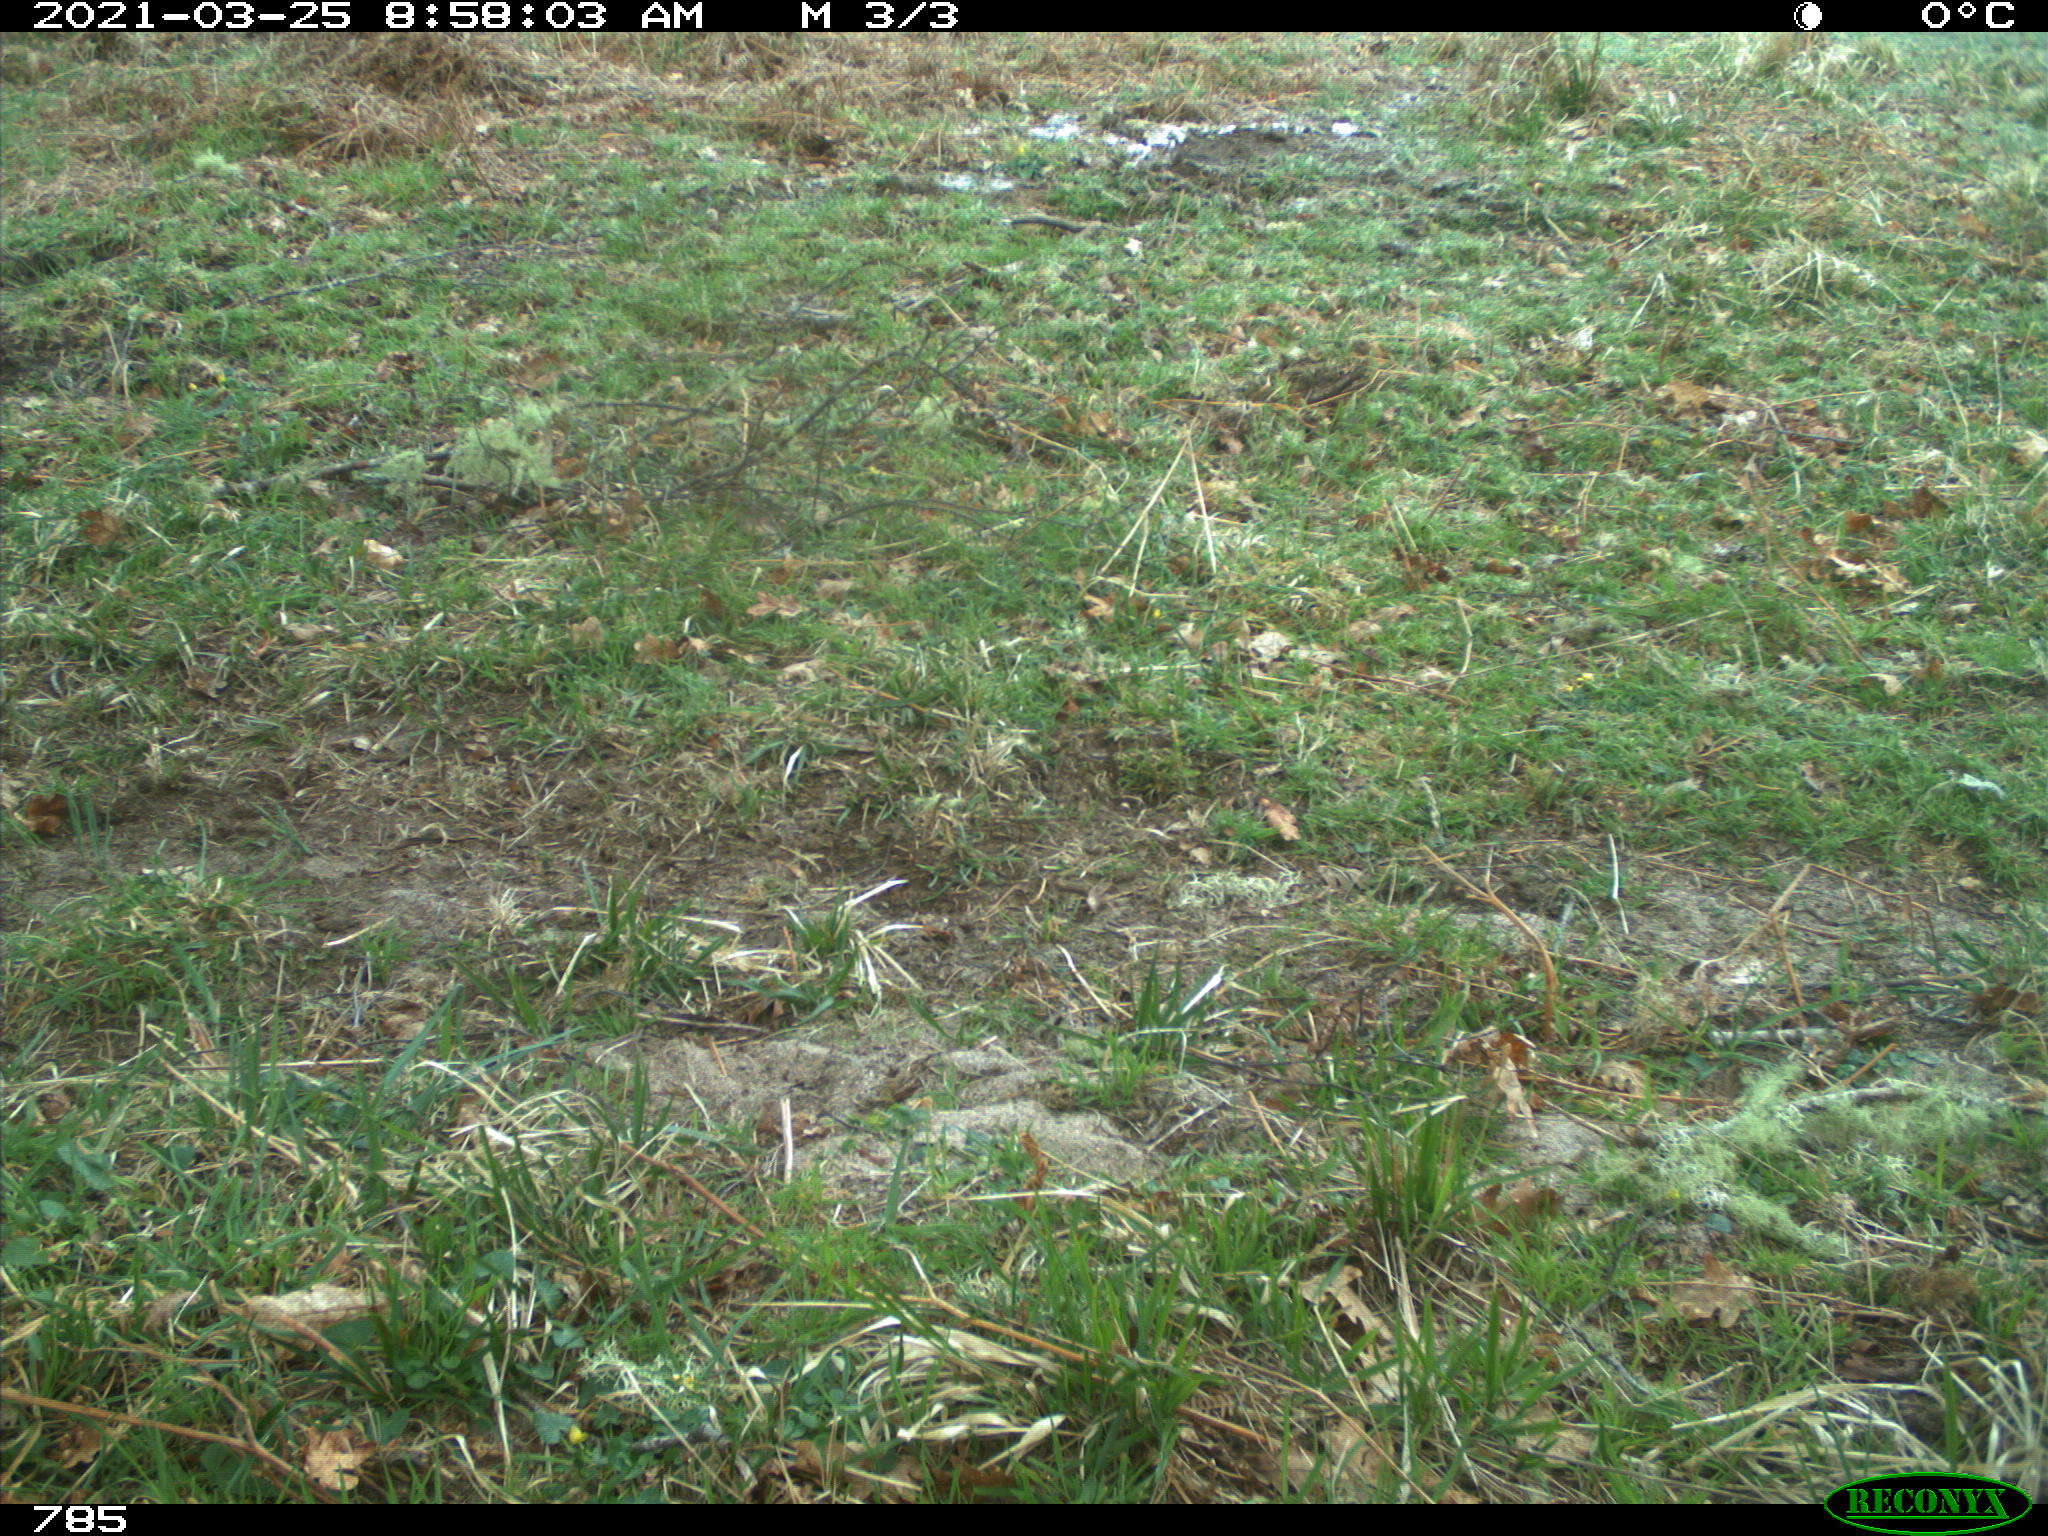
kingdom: Animalia
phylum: Chordata
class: Mammalia
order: Perissodactyla
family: Equidae
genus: Equus
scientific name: Equus caballus
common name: Horse
